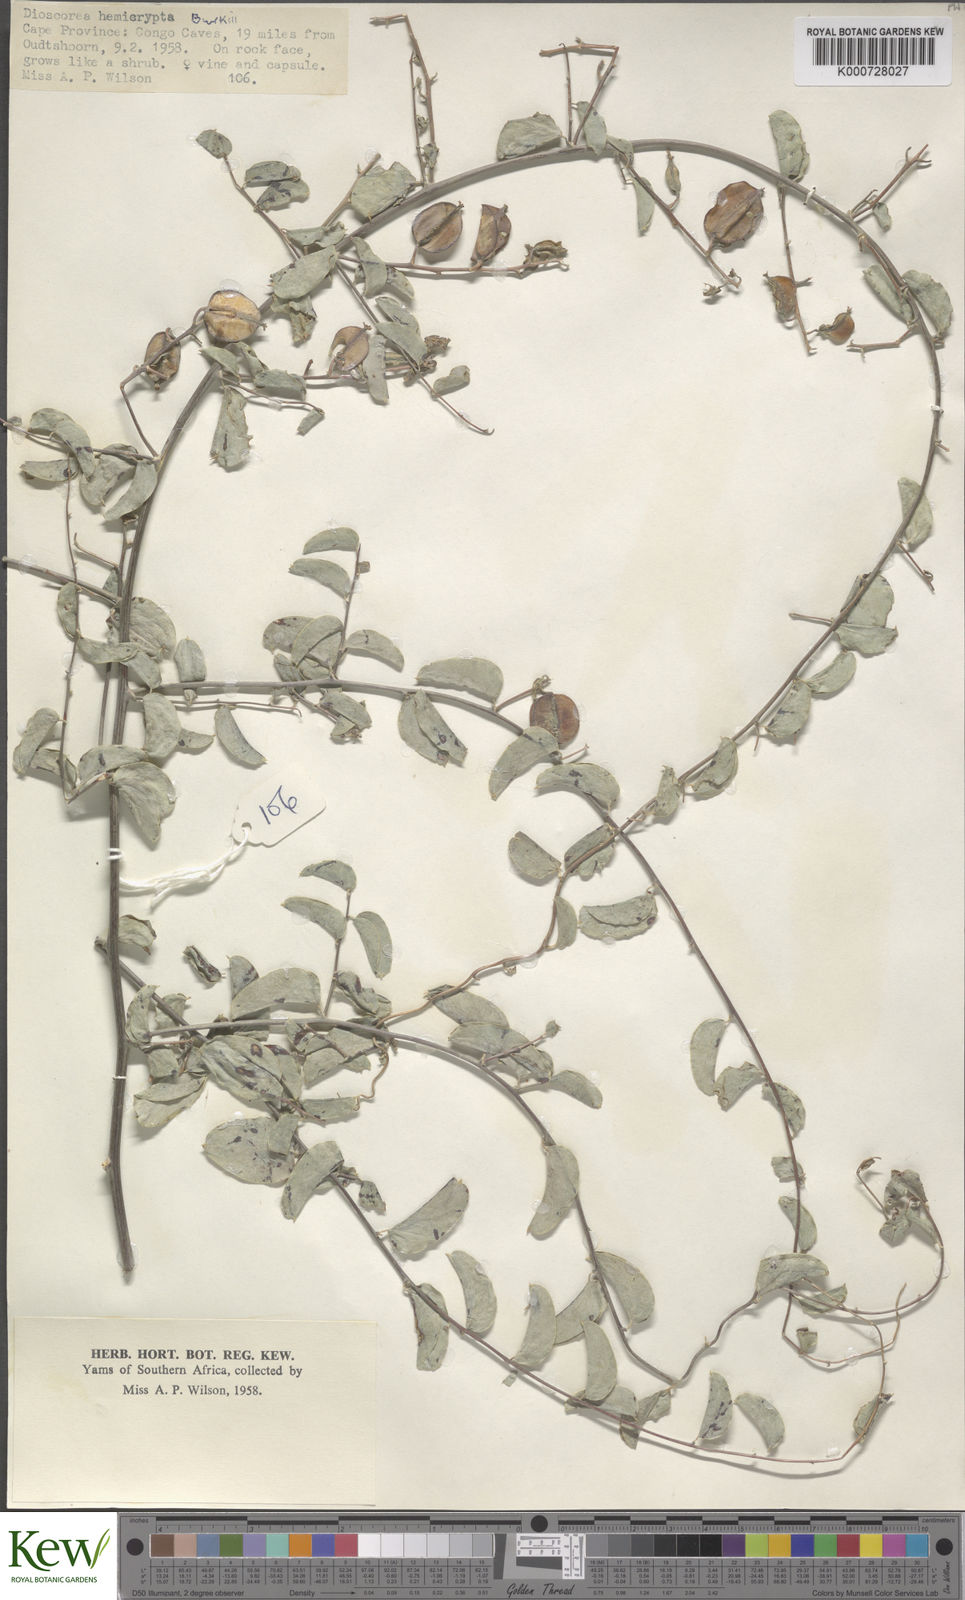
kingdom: Plantae
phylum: Tracheophyta
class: Liliopsida
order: Dioscoreales
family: Dioscoreaceae
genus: Dioscorea
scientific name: Dioscorea hemicrypta
